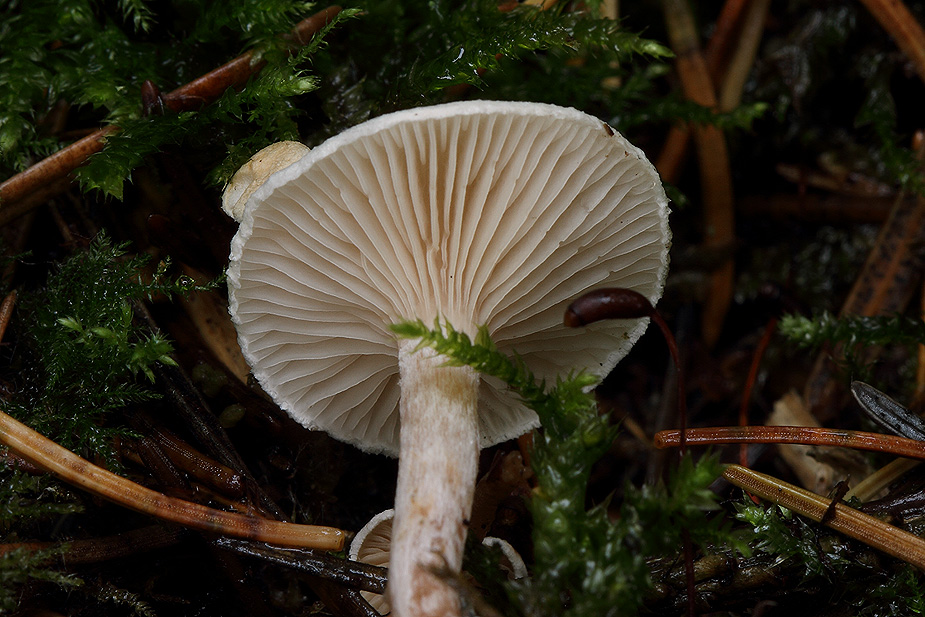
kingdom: Fungi
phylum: Basidiomycota
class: Agaricomycetes
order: Agaricales
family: Tricholomataceae
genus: Ripartites
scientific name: Ripartites tricholoma
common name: almindelig skæghat
